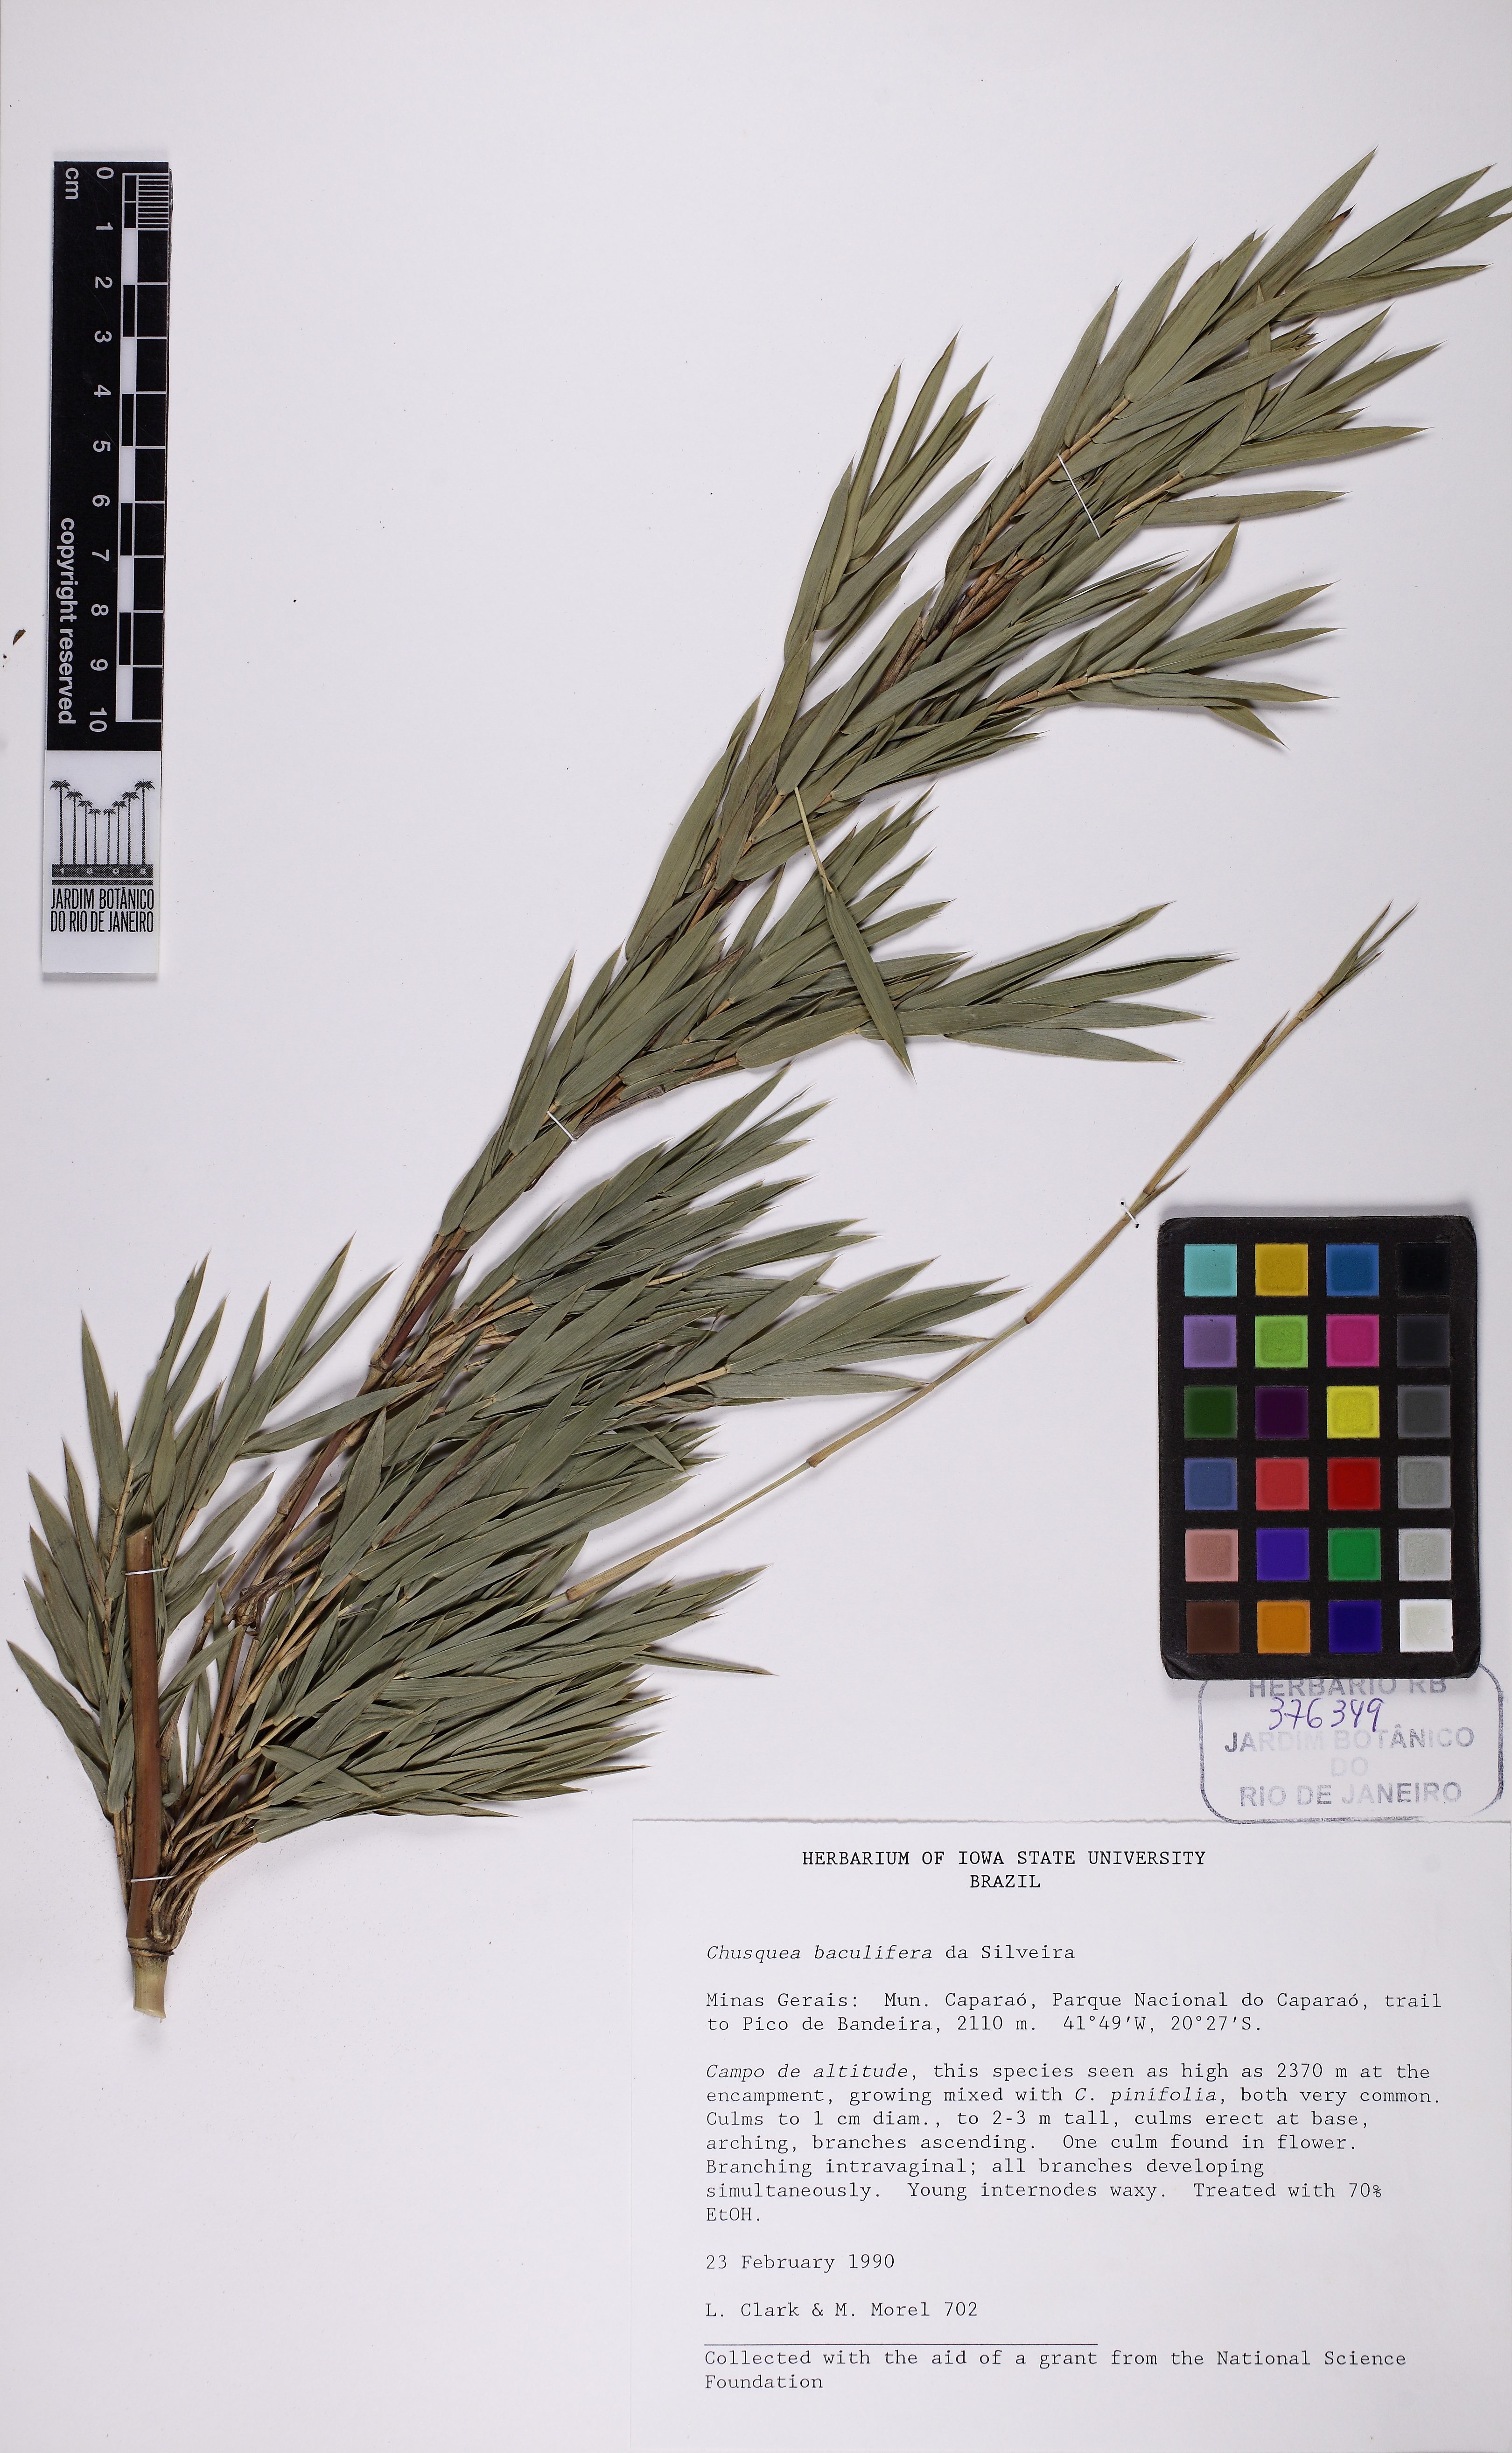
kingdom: Plantae
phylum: Tracheophyta
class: Liliopsida
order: Poales
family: Poaceae
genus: Chusquea
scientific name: Chusquea baculifera
